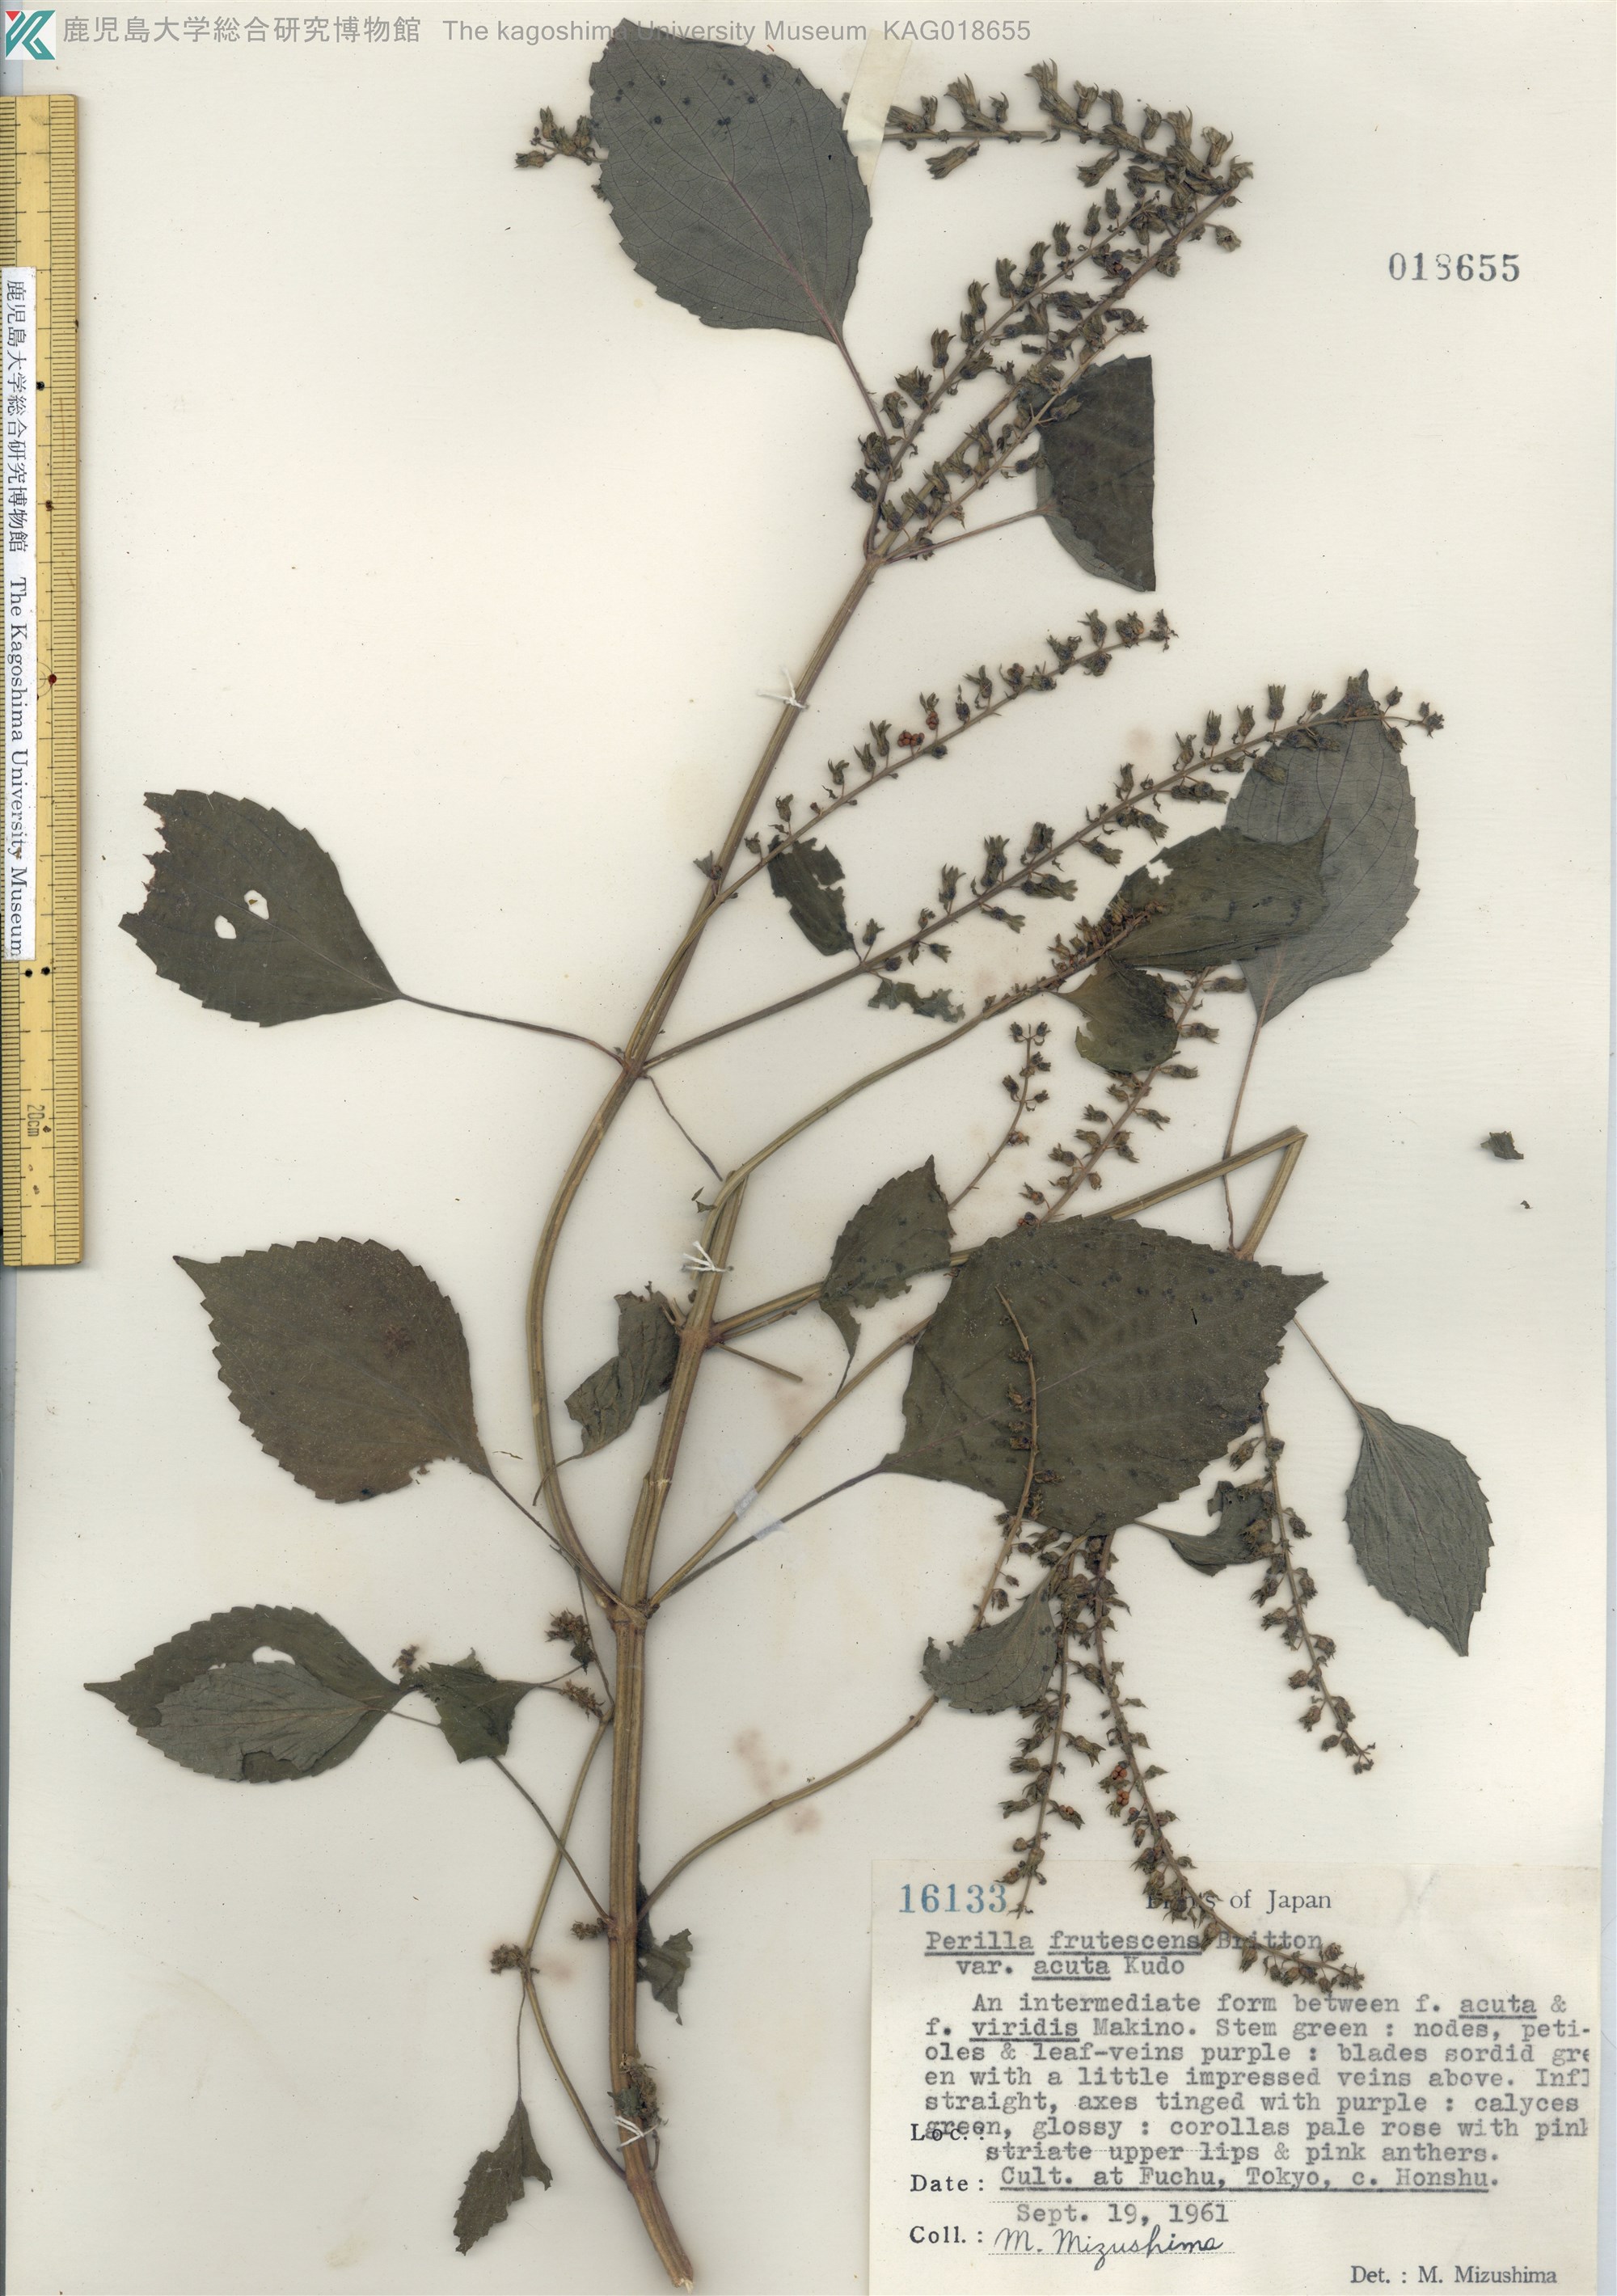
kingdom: Plantae
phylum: Tracheophyta
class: Magnoliopsida
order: Lamiales
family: Lamiaceae
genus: Perilla
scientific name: Perilla frutescens
